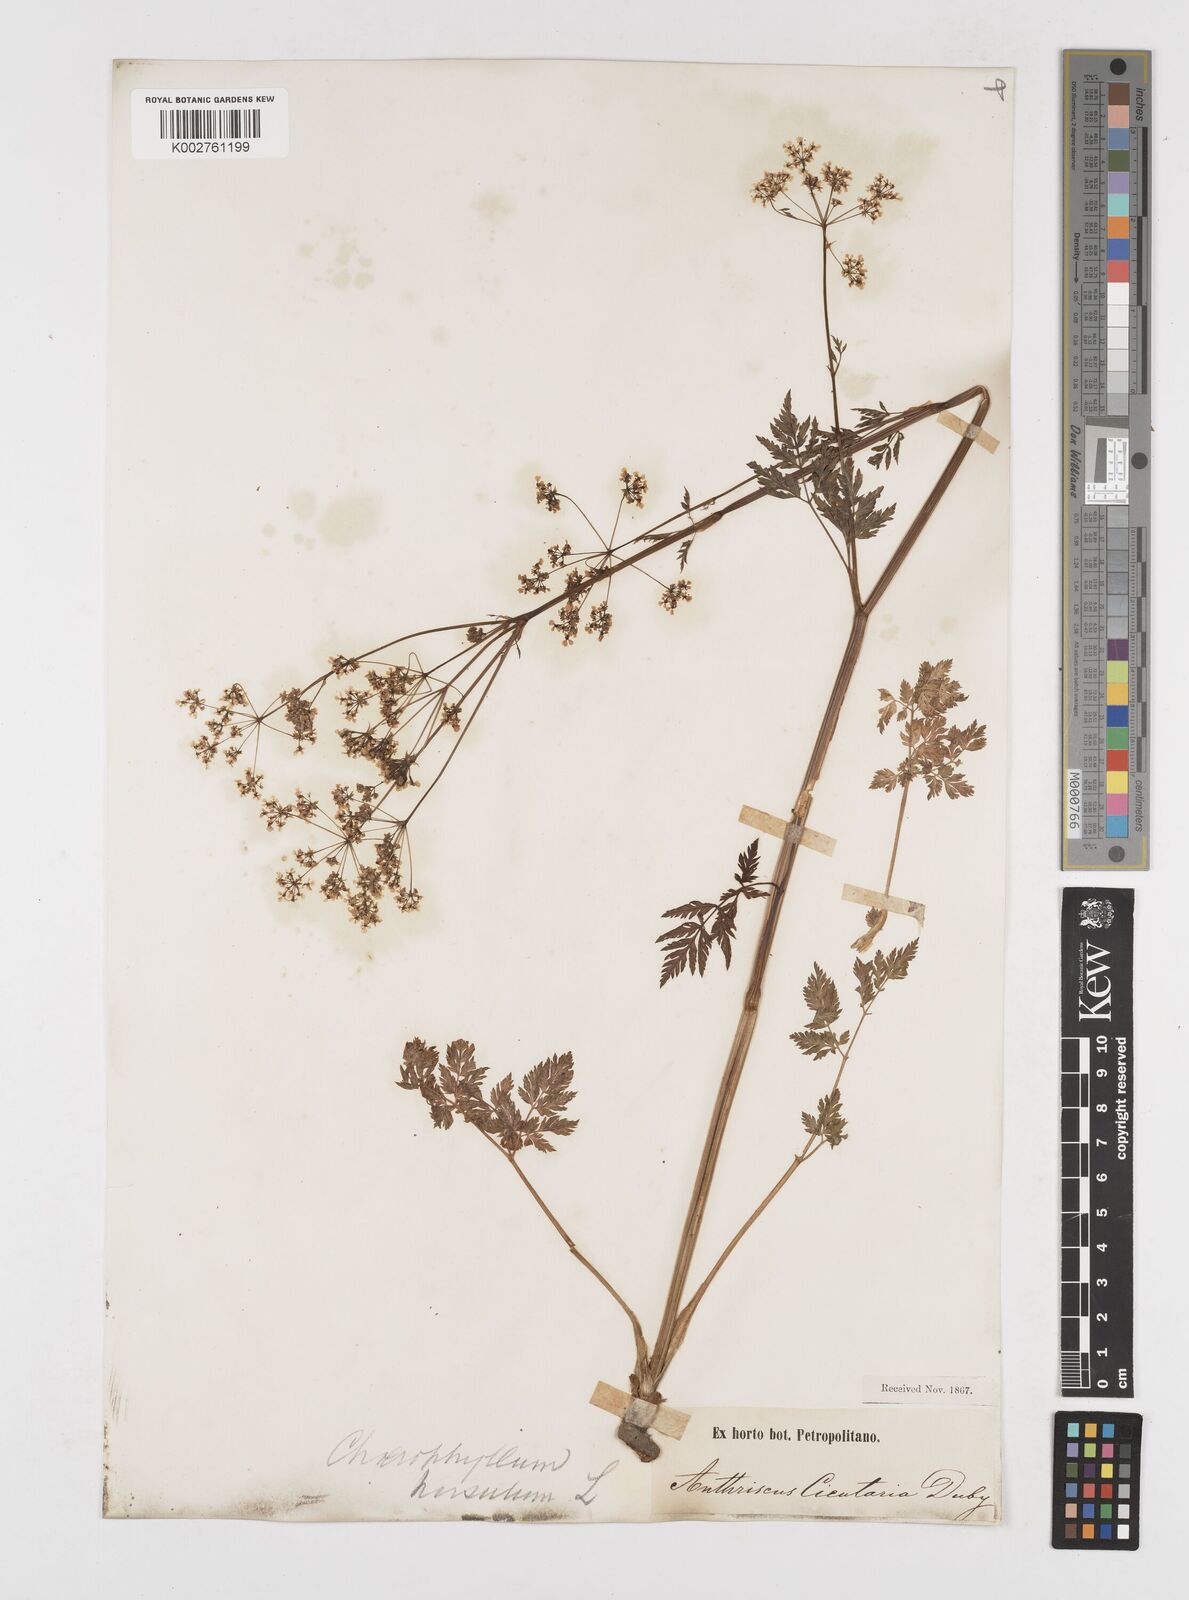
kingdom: Plantae
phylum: Tracheophyta
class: Magnoliopsida
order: Apiales
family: Apiaceae
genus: Chaerophyllum
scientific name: Chaerophyllum hirsutum
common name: Hairy chervil
